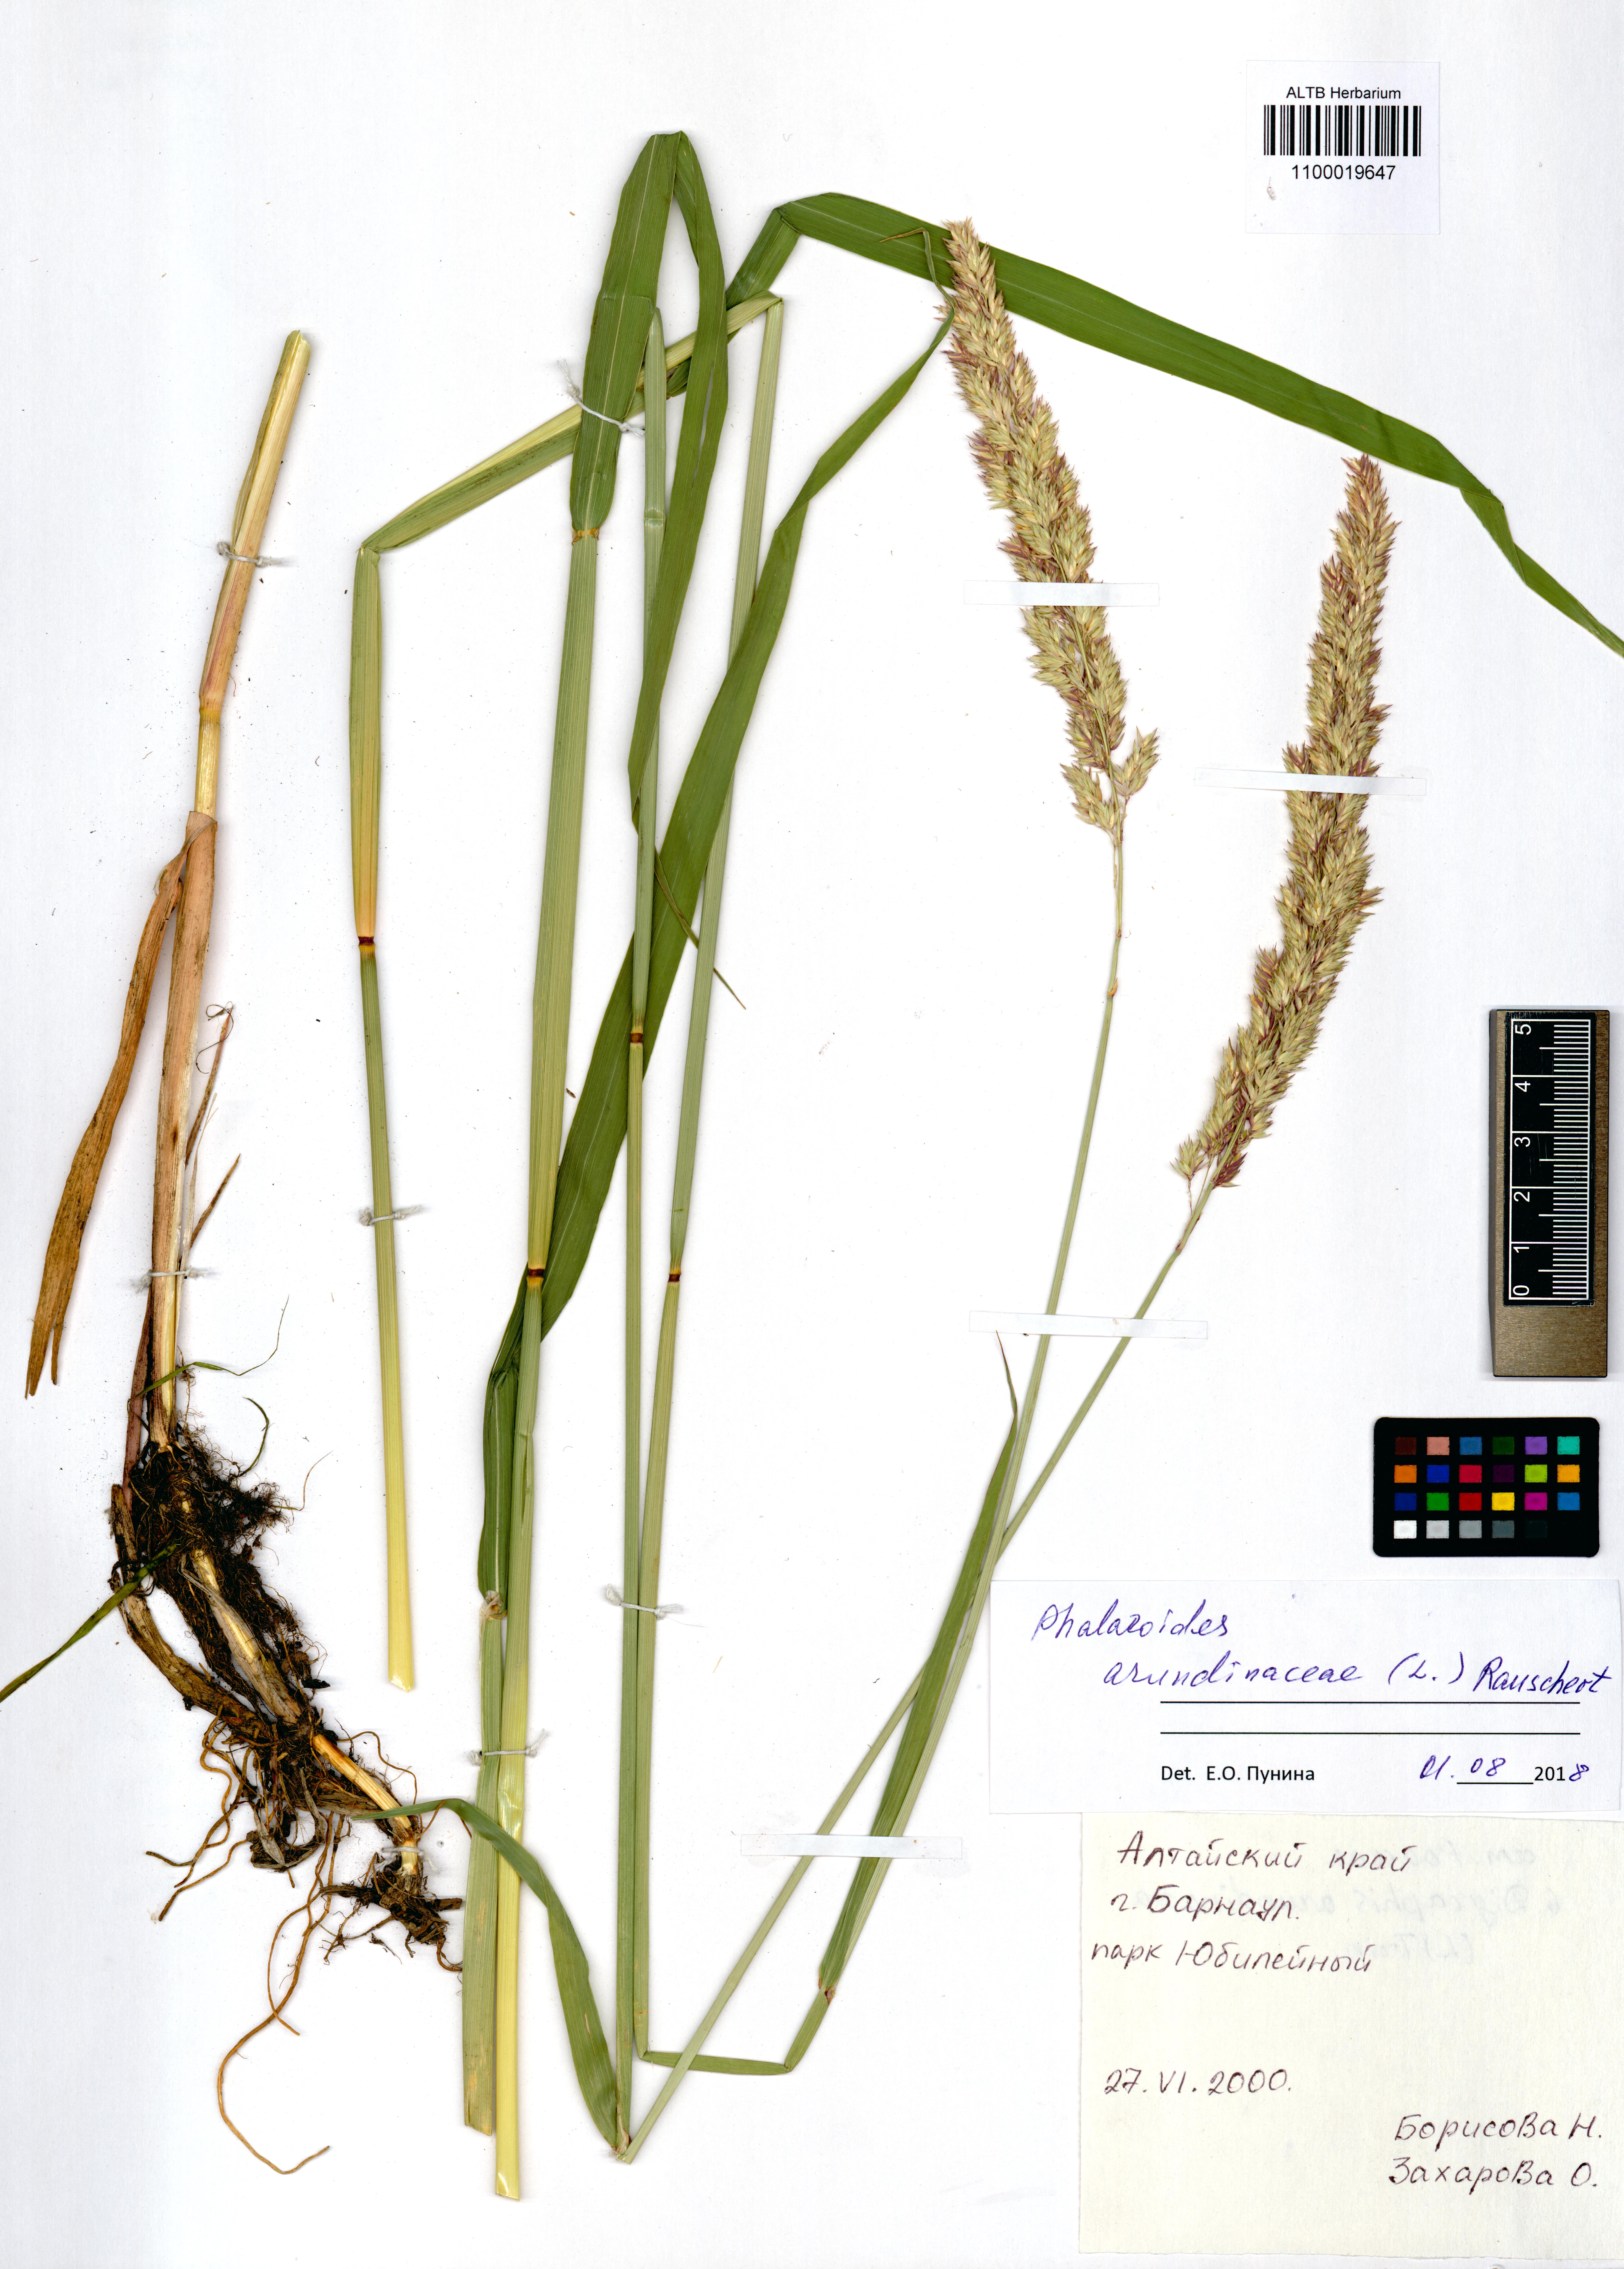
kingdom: Plantae
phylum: Tracheophyta
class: Liliopsida
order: Poales
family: Poaceae
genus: Phalaris
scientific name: Phalaris arundinacea
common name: Reed canary-grass
